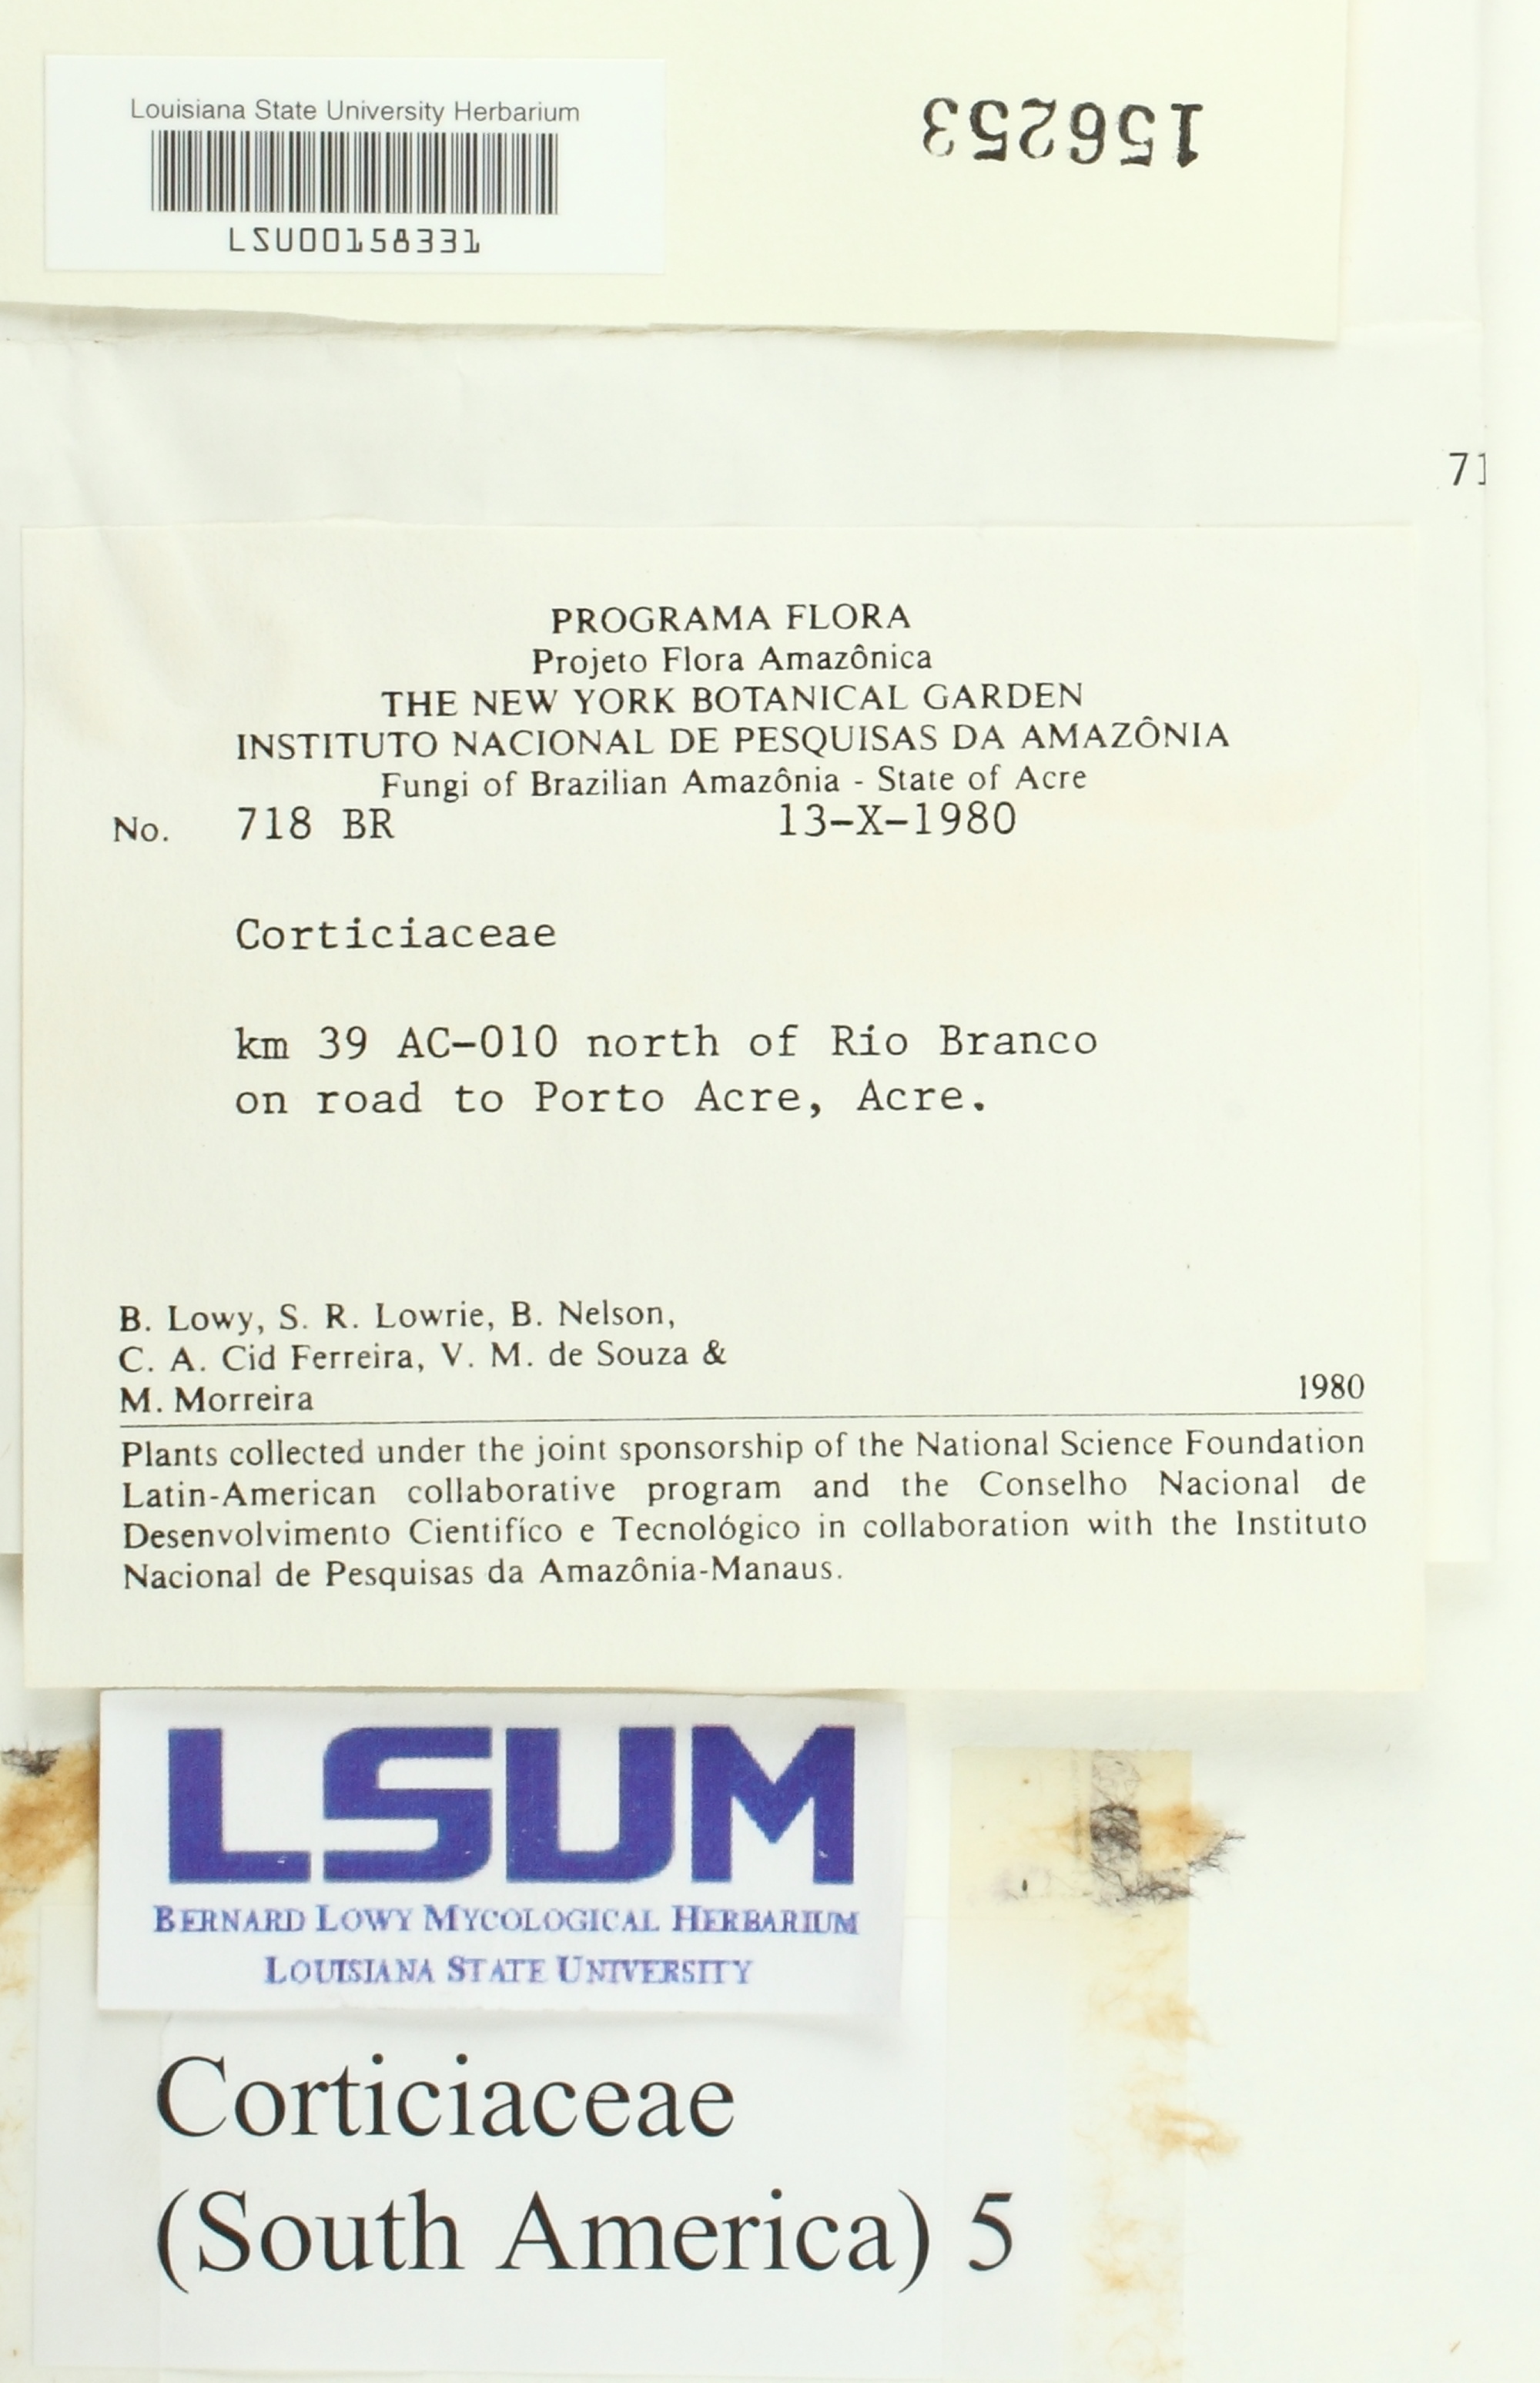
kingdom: Fungi
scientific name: Fungi
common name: Fungi
